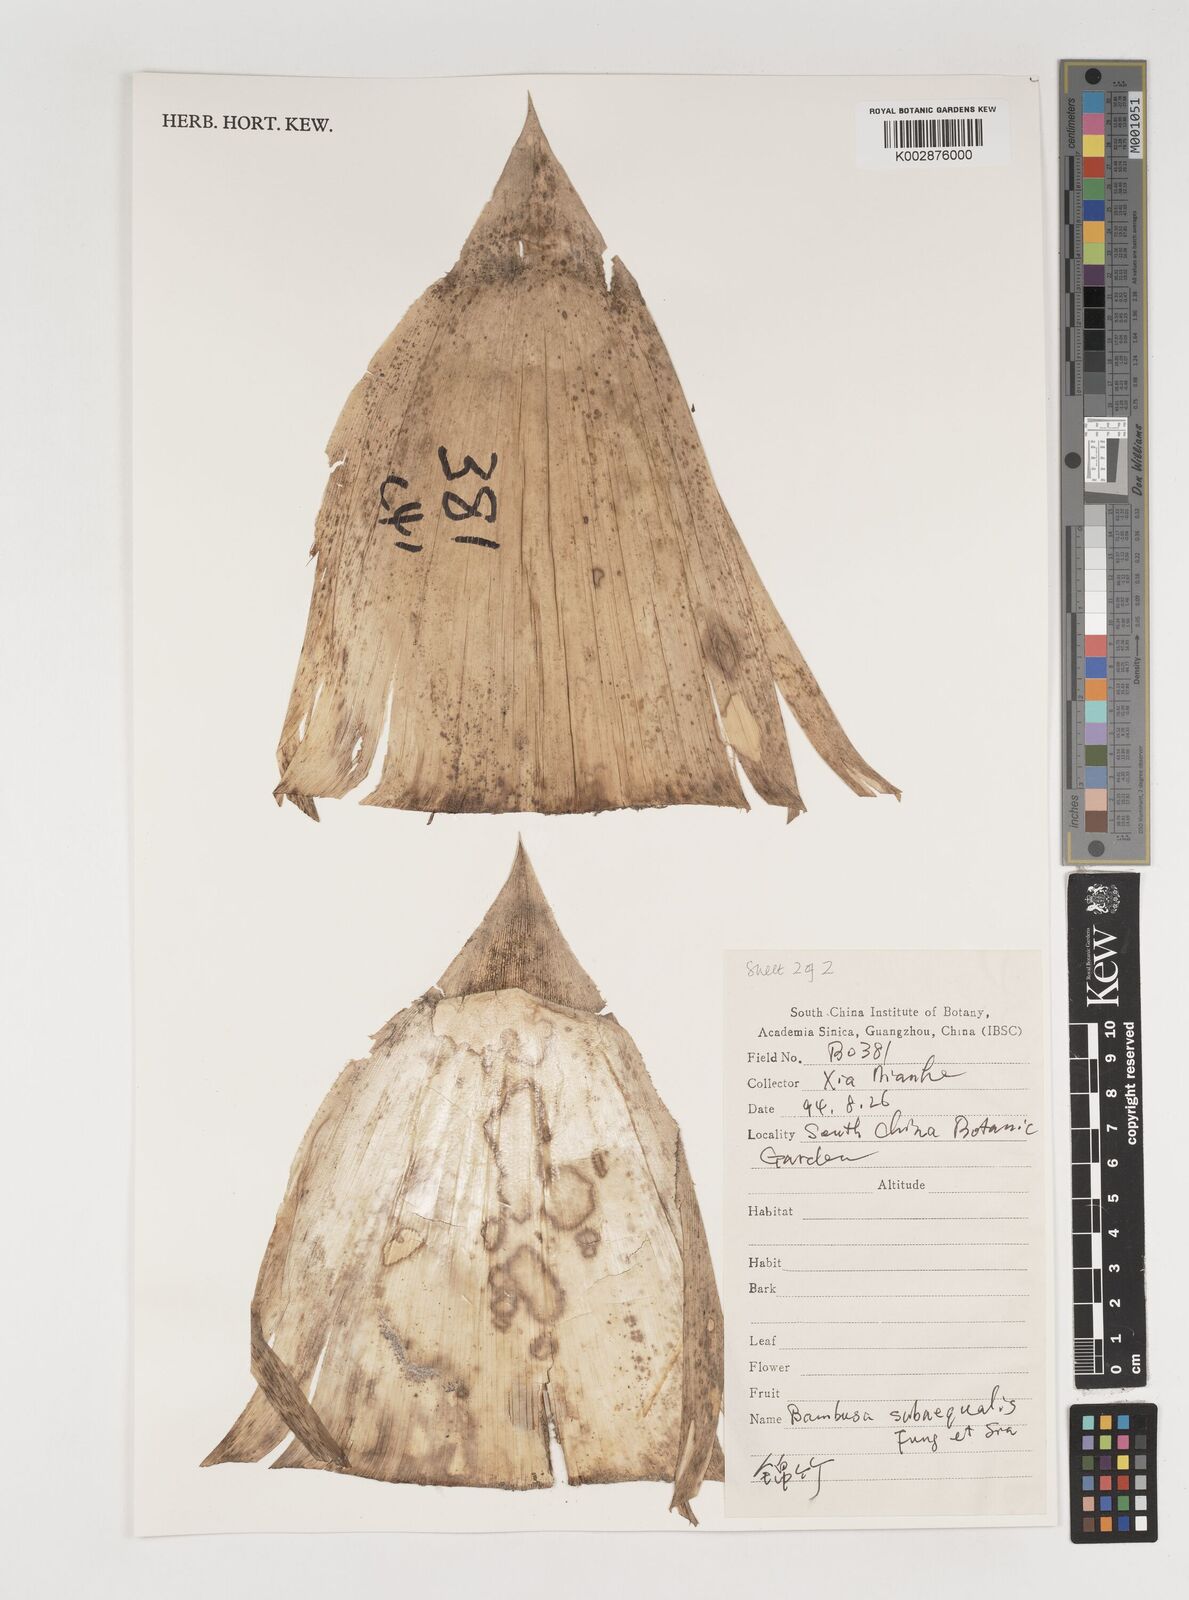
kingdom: Plantae
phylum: Tracheophyta
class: Liliopsida
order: Poales
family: Poaceae
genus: Bambusa
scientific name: Bambusa subaequalis
